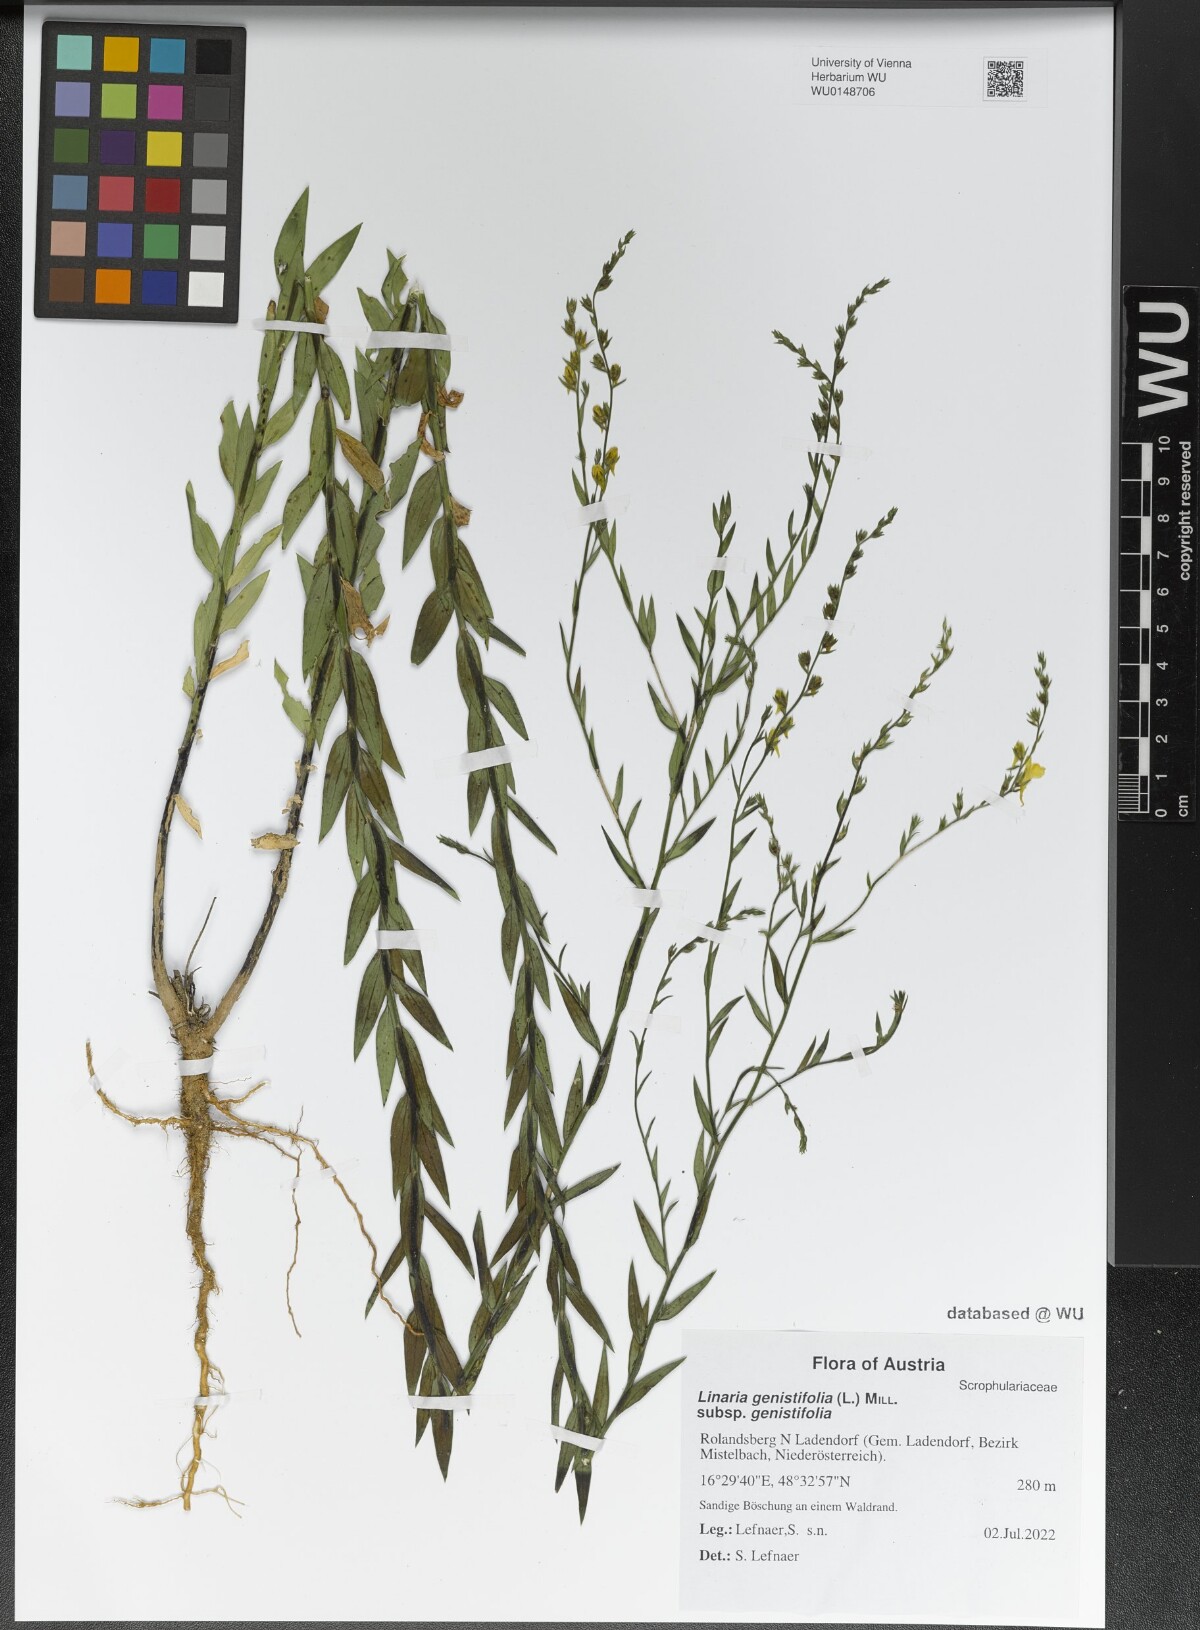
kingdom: Plantae
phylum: Tracheophyta
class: Magnoliopsida
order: Lamiales
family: Plantaginaceae
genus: Linaria
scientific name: Linaria genistifolia
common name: Broomleaf toadflax
